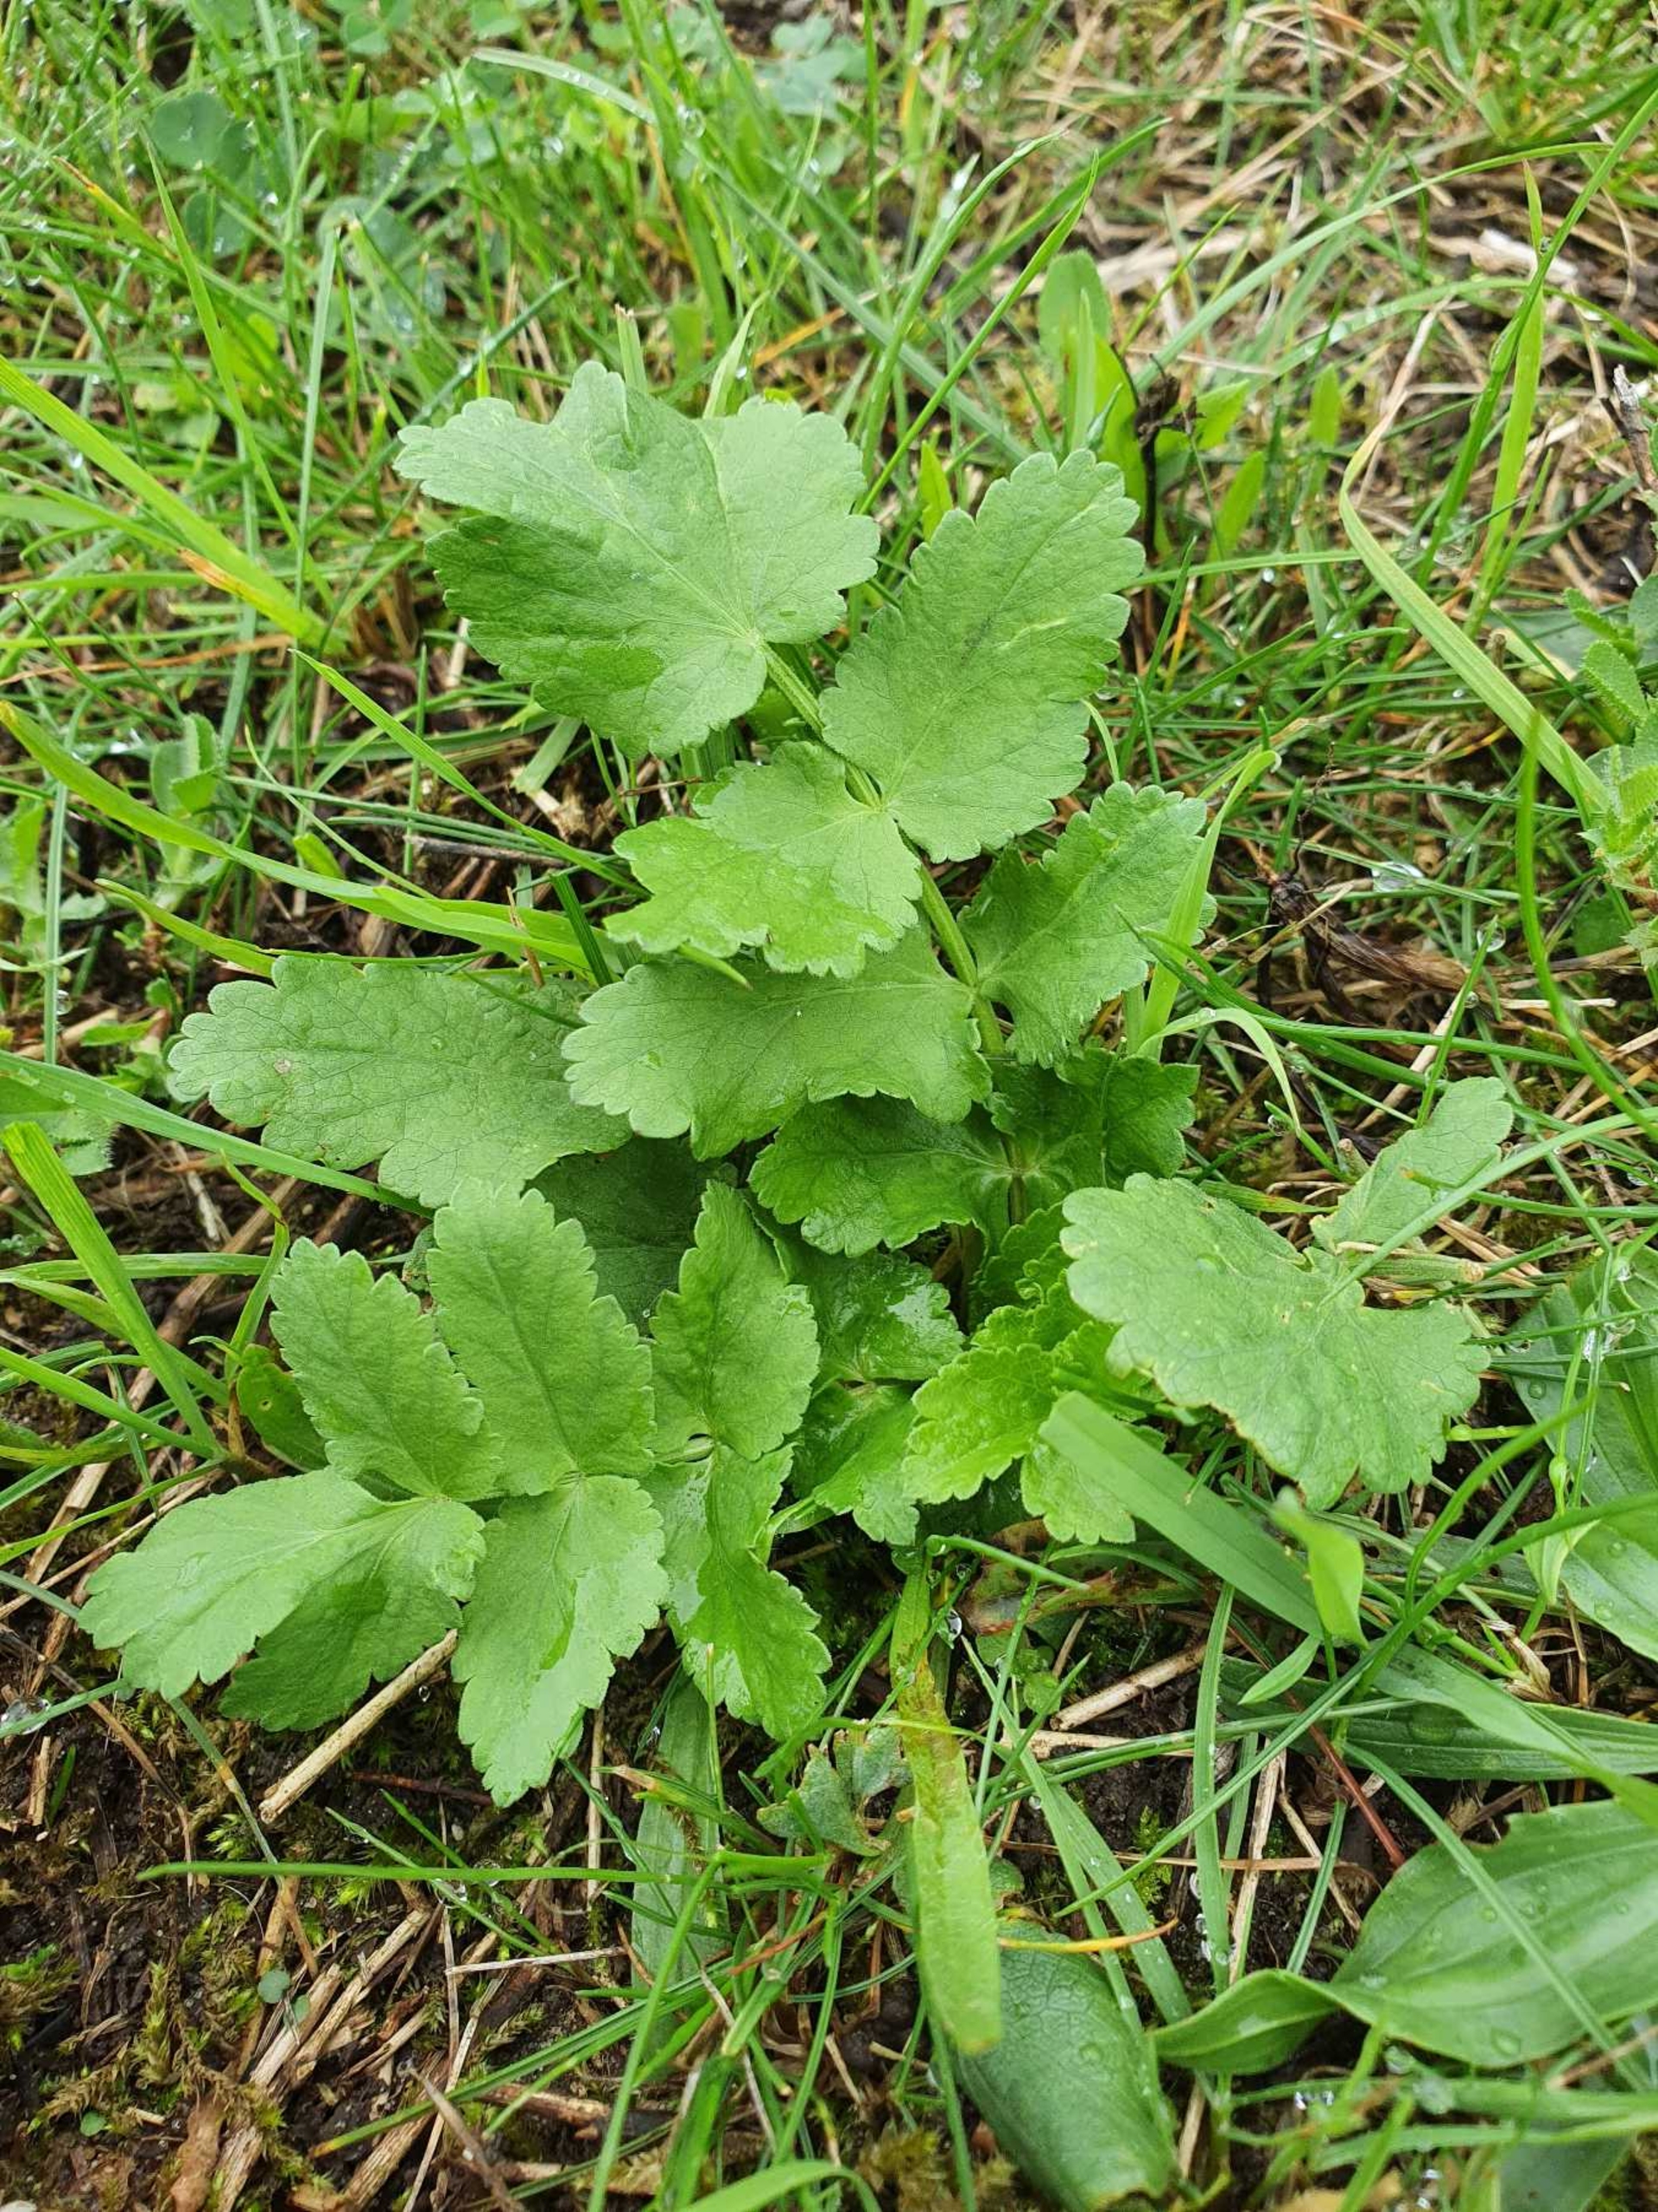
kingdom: Plantae
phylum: Tracheophyta
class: Magnoliopsida
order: Apiales
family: Apiaceae
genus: Pastinaca
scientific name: Pastinaca sativa
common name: Pastinak
